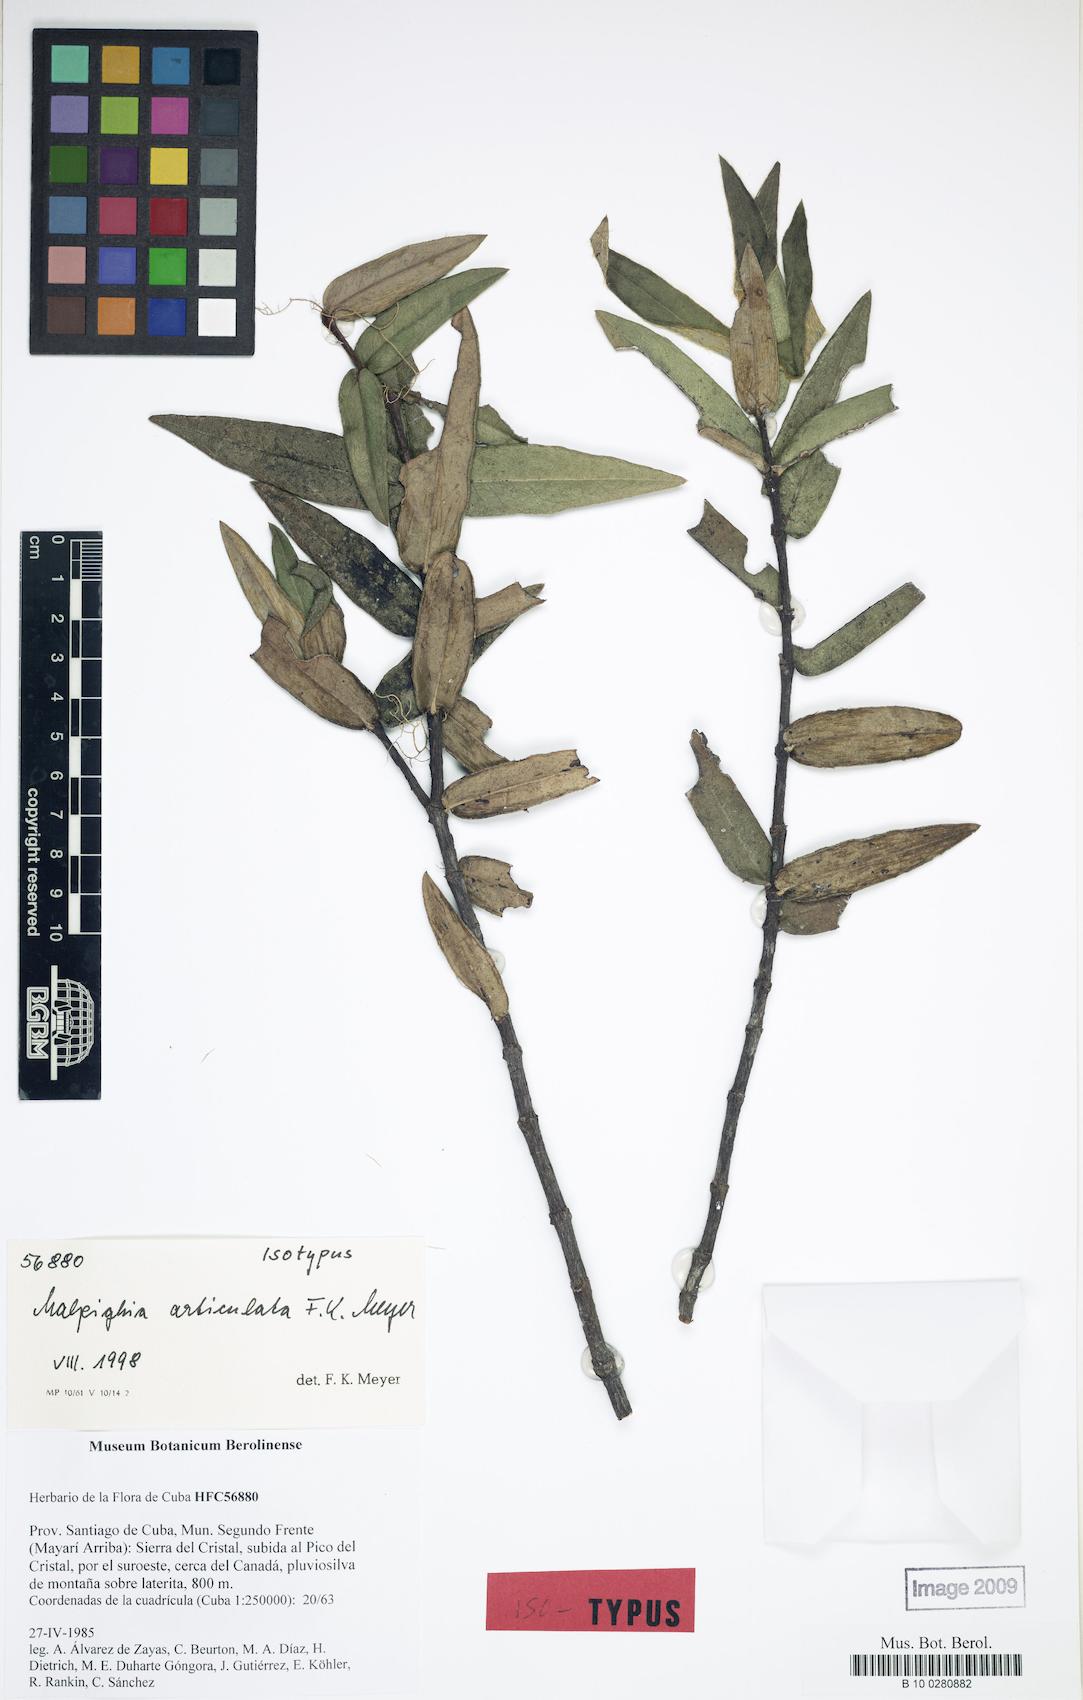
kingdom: Plantae
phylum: Tracheophyta
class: Magnoliopsida
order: Malpighiales
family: Malpighiaceae
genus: Malpighia
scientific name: Malpighia articulata
